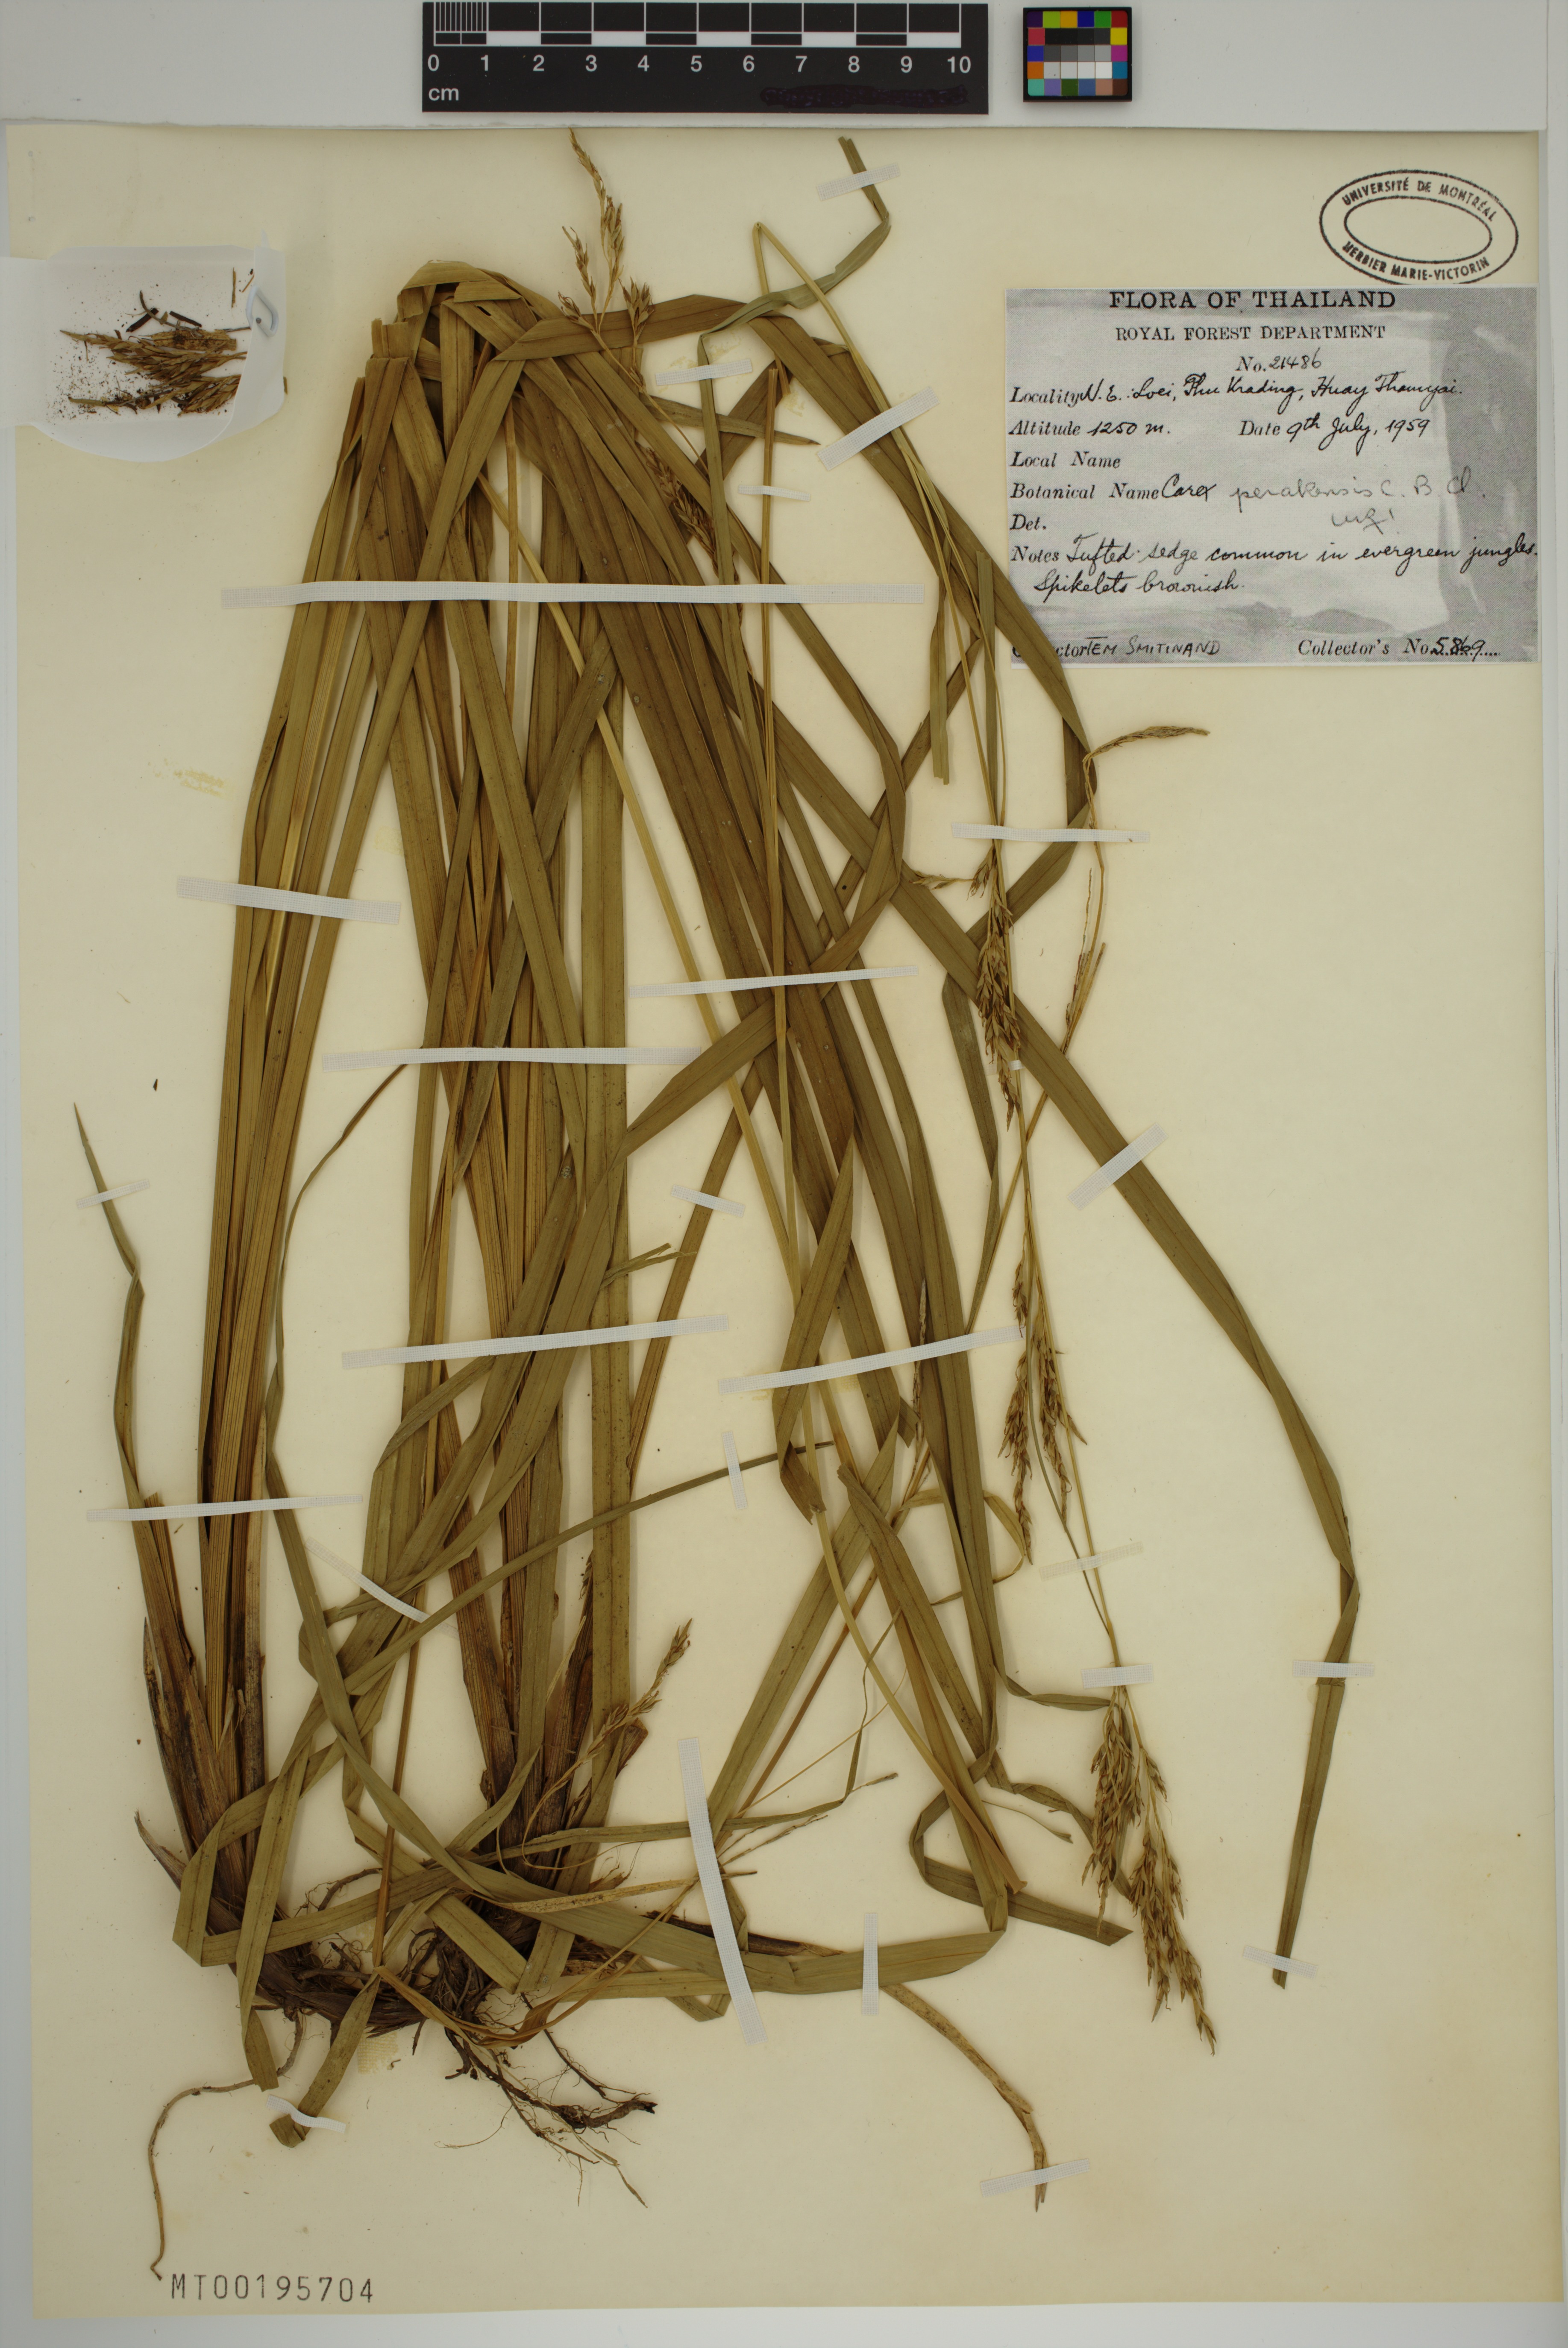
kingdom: Plantae
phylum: Tracheophyta
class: Liliopsida
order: Poales
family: Cyperaceae
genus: Carex
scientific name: Carex perakensis
